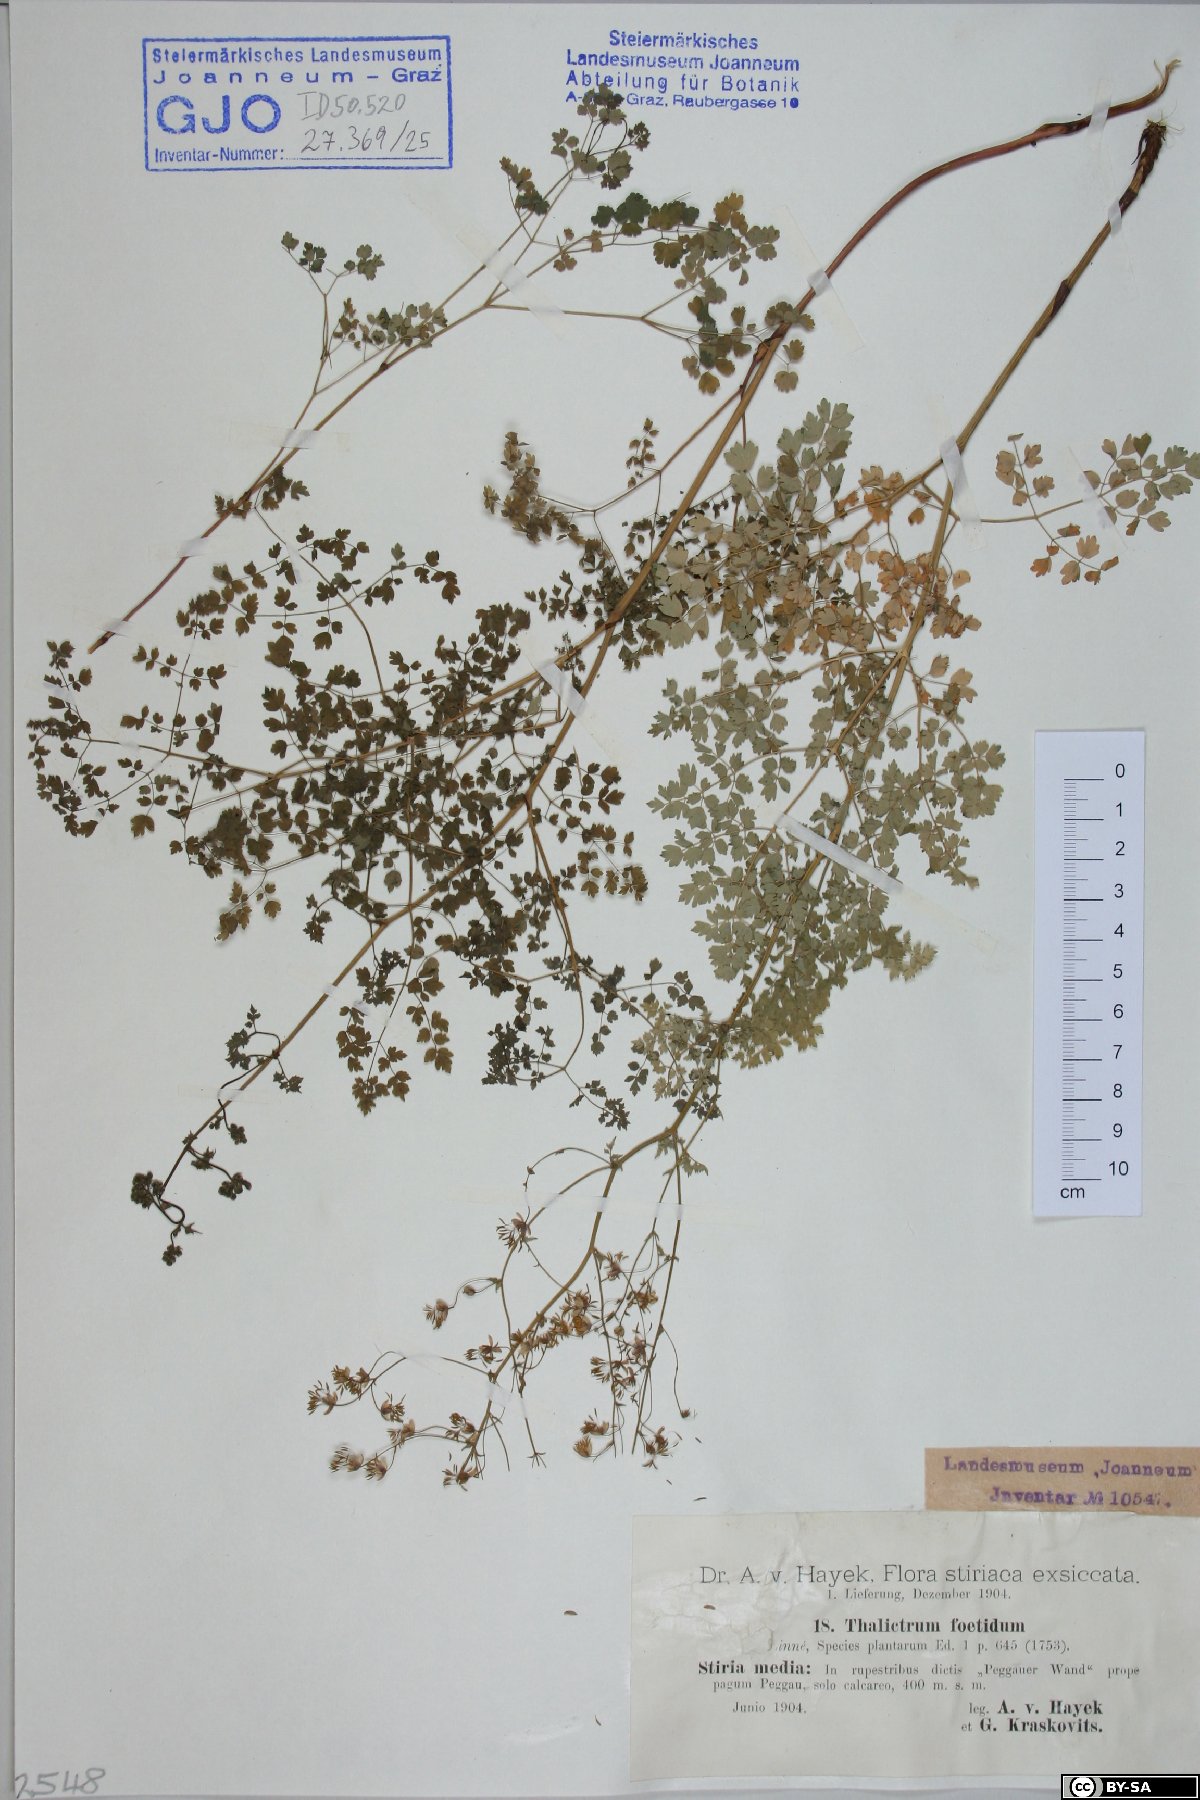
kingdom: Plantae
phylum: Tracheophyta
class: Magnoliopsida
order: Ranunculales
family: Ranunculaceae
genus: Thalictrum
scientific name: Thalictrum foetidum
